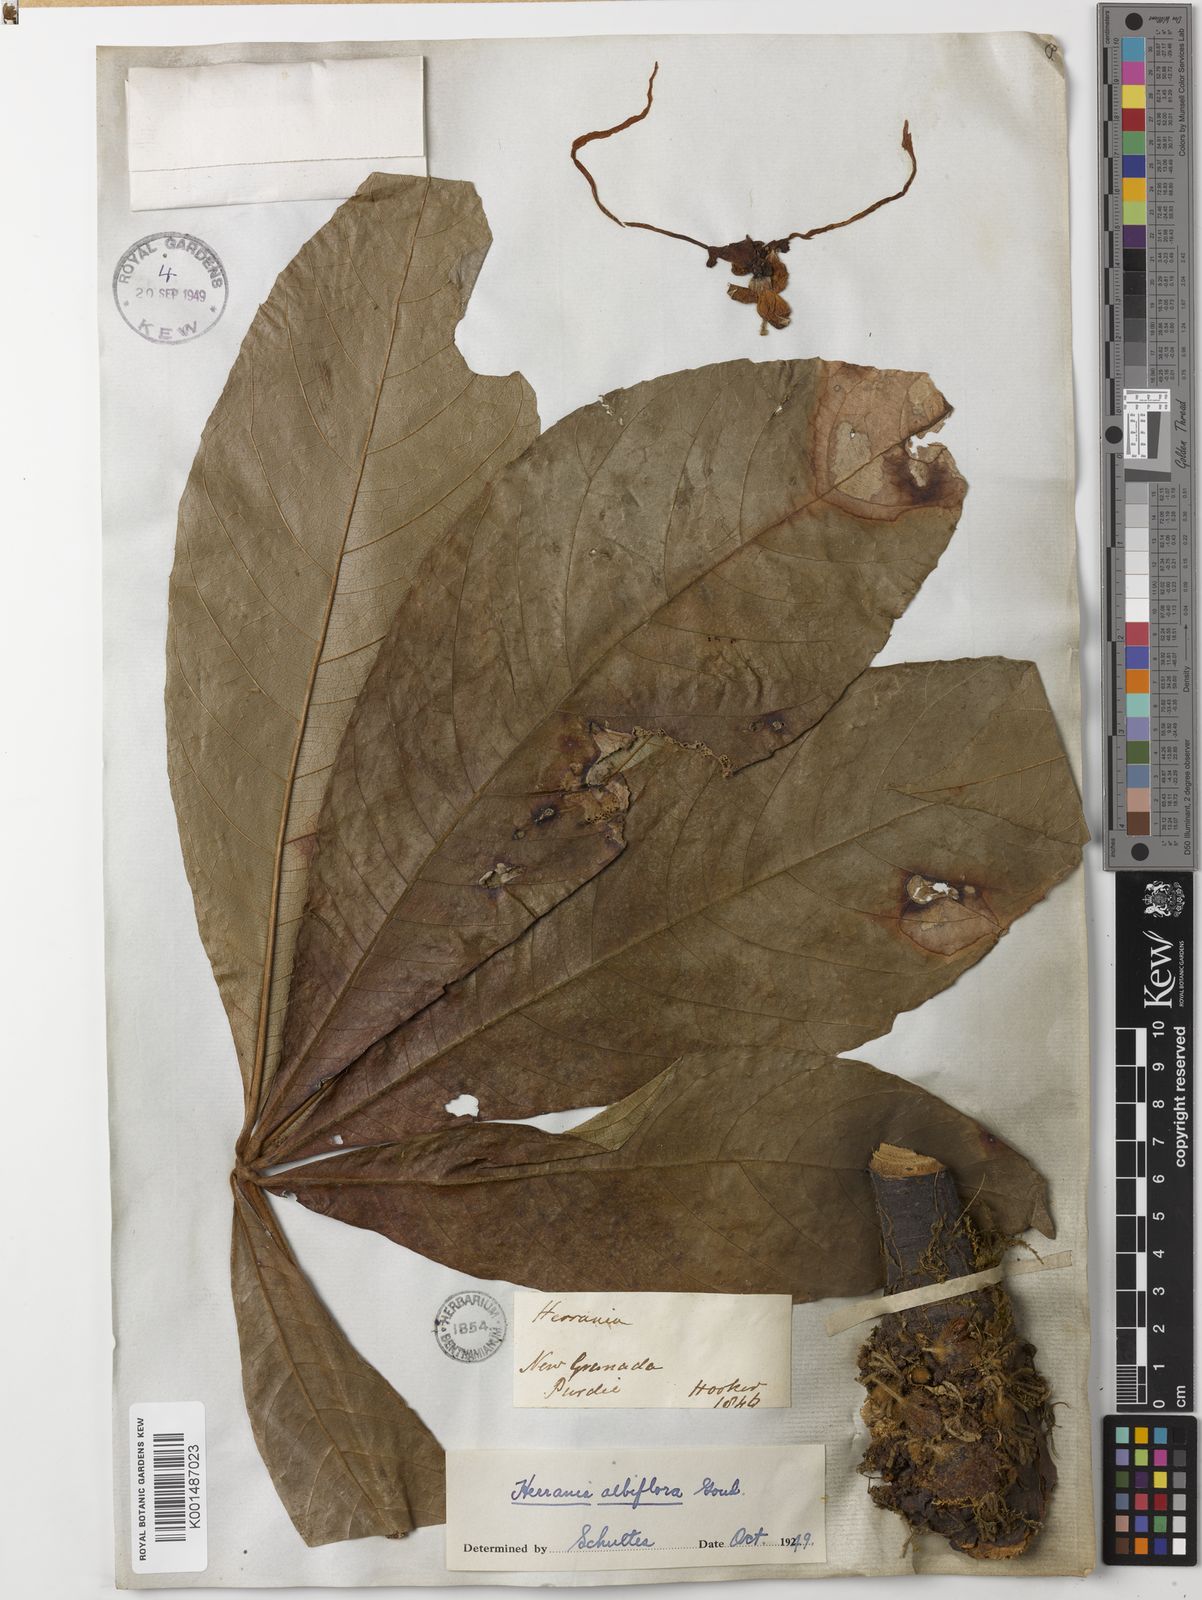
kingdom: Plantae
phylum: Tracheophyta
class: Magnoliopsida
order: Malvales
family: Malvaceae
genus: Herrania
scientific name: Herrania albiflora
